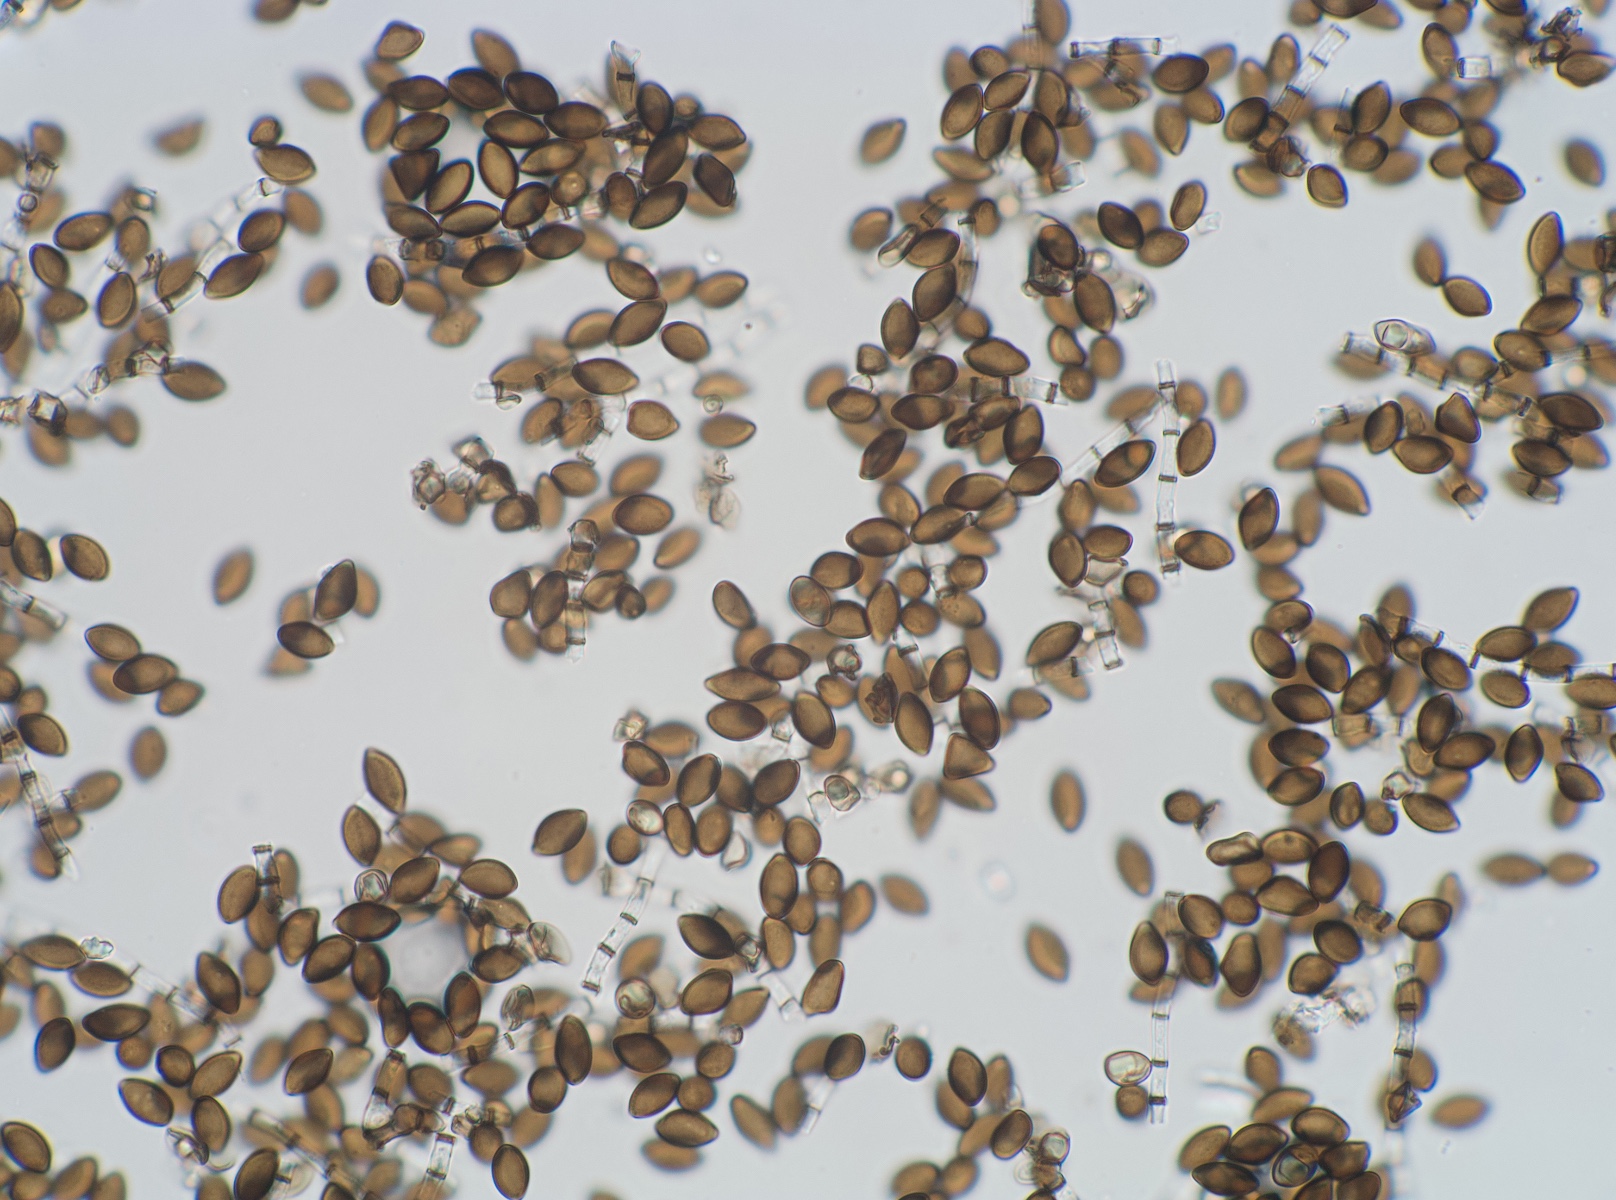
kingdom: Fungi
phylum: Ascomycota
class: Sordariomycetes
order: Xylariales
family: Apiosporaceae
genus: Arthrinium
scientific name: Arthrinium sporophleum
